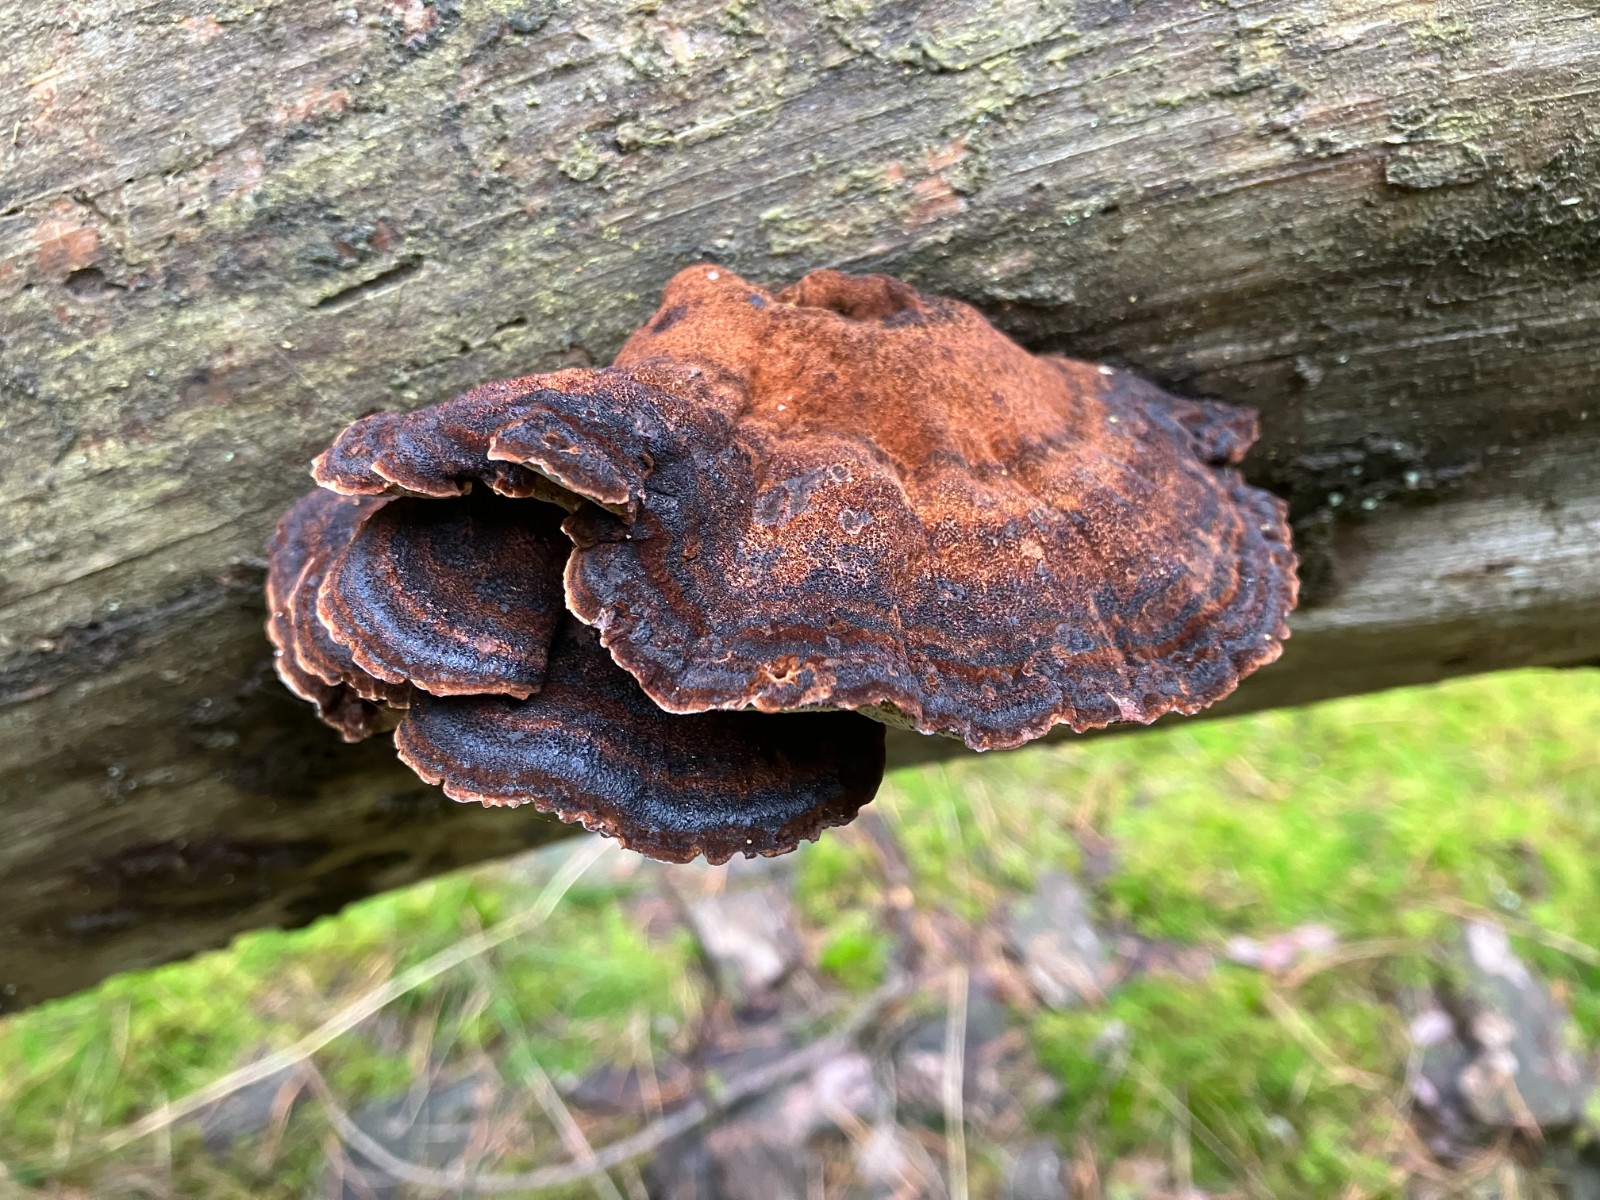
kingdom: Fungi
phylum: Basidiomycota
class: Agaricomycetes
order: Polyporales
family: Ischnodermataceae
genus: Ischnoderma
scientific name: Ischnoderma benzoinum
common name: gran-tjæreporesvamp
